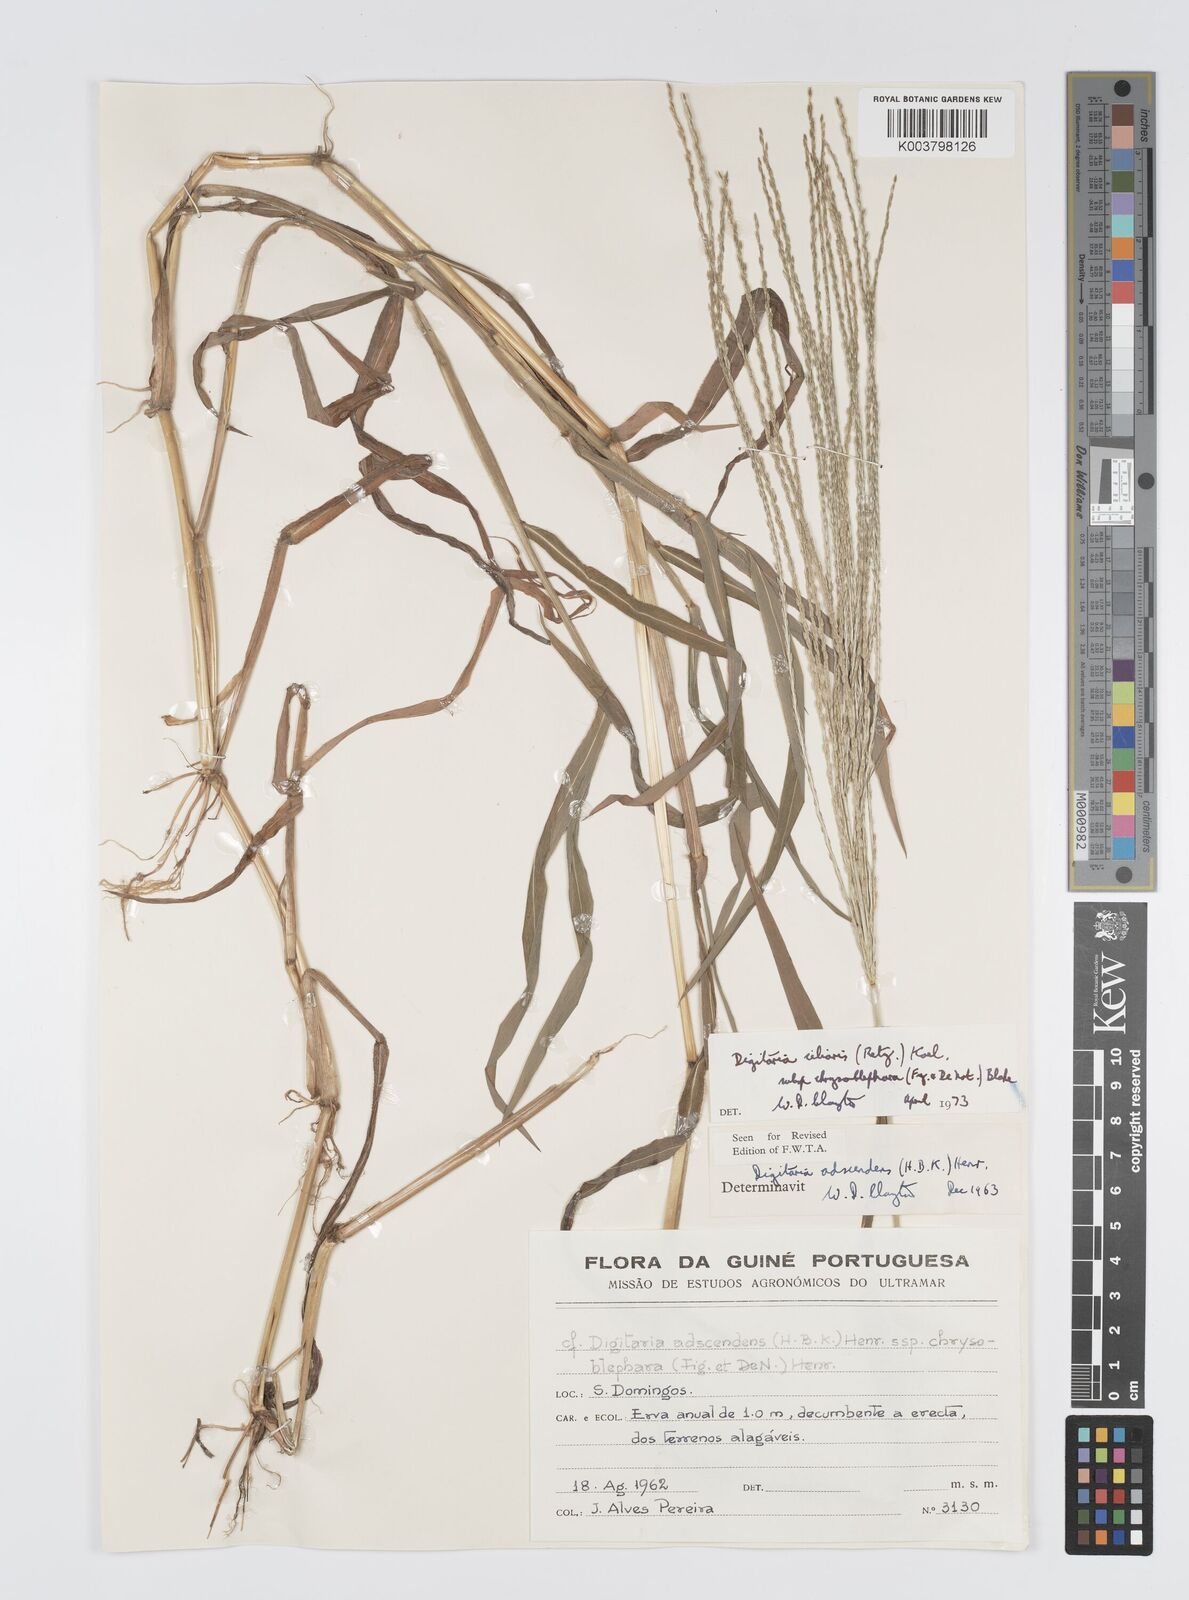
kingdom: Plantae
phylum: Tracheophyta
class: Liliopsida
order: Poales
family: Poaceae
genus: Digitaria
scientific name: Digitaria ciliaris
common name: Tropical finger-grass
